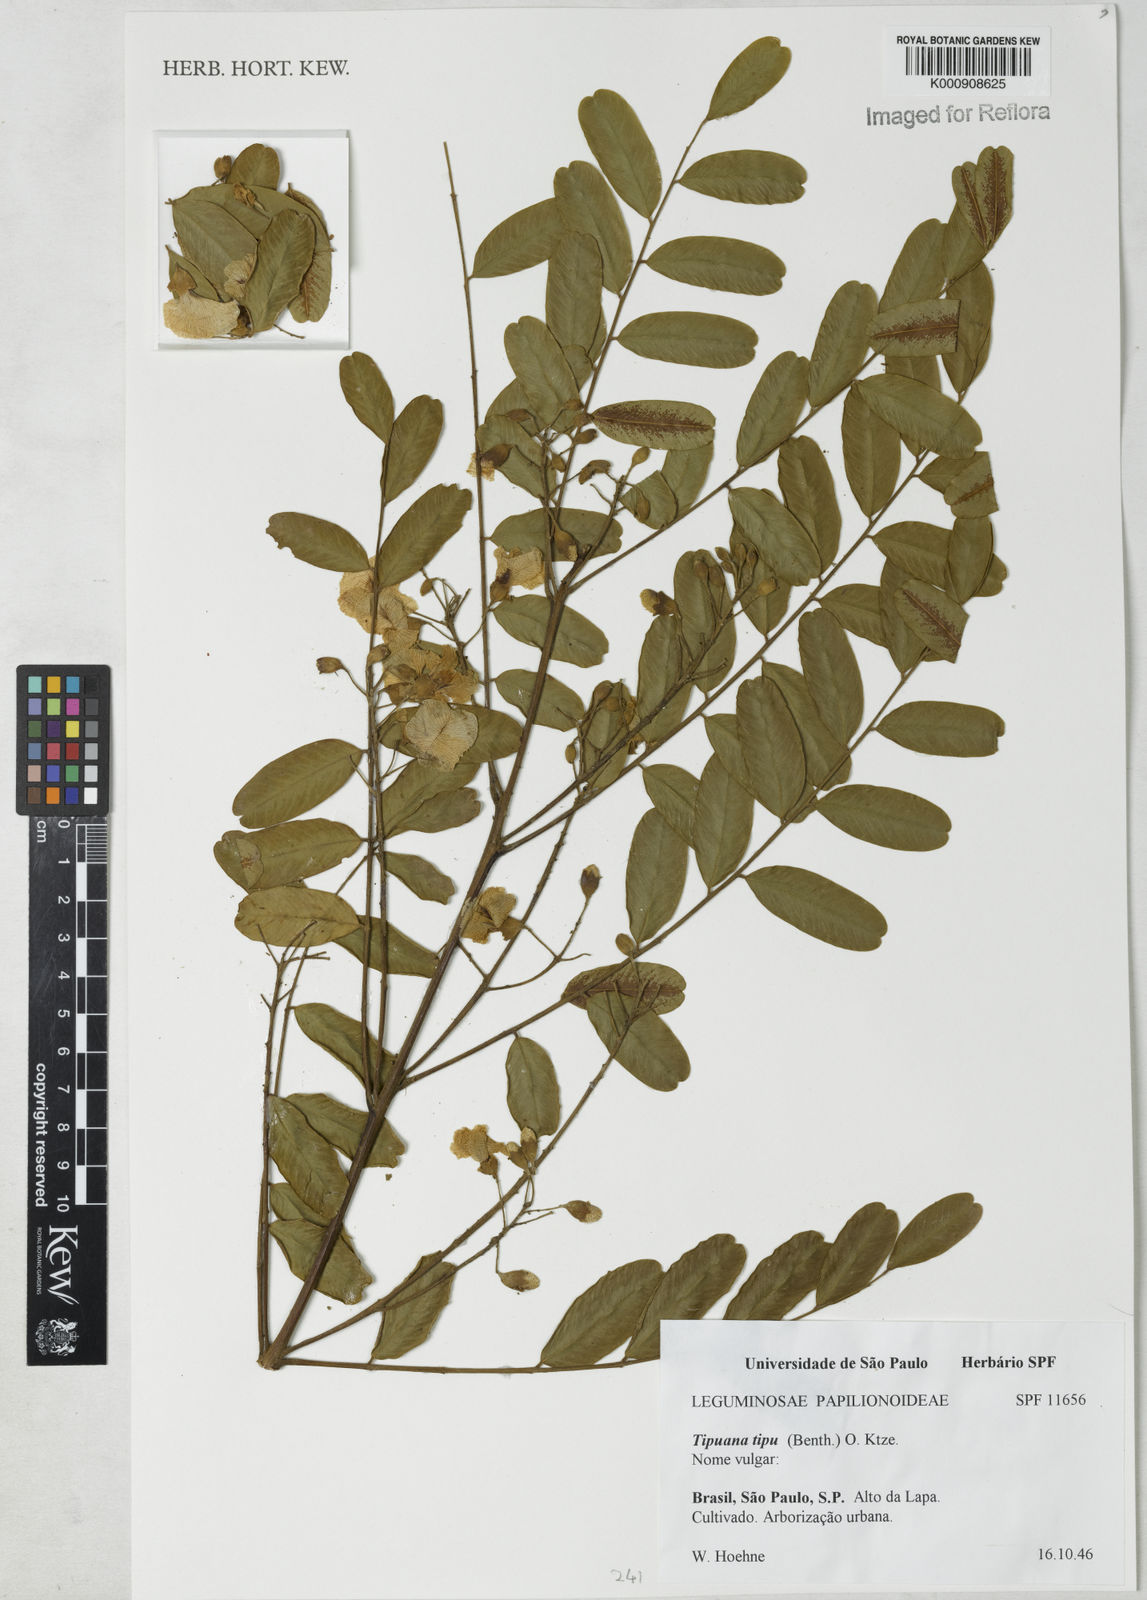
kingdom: Plantae
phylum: Tracheophyta
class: Magnoliopsida
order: Fabales
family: Fabaceae
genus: Tipuana
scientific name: Tipuana tipu
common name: Tiputree
